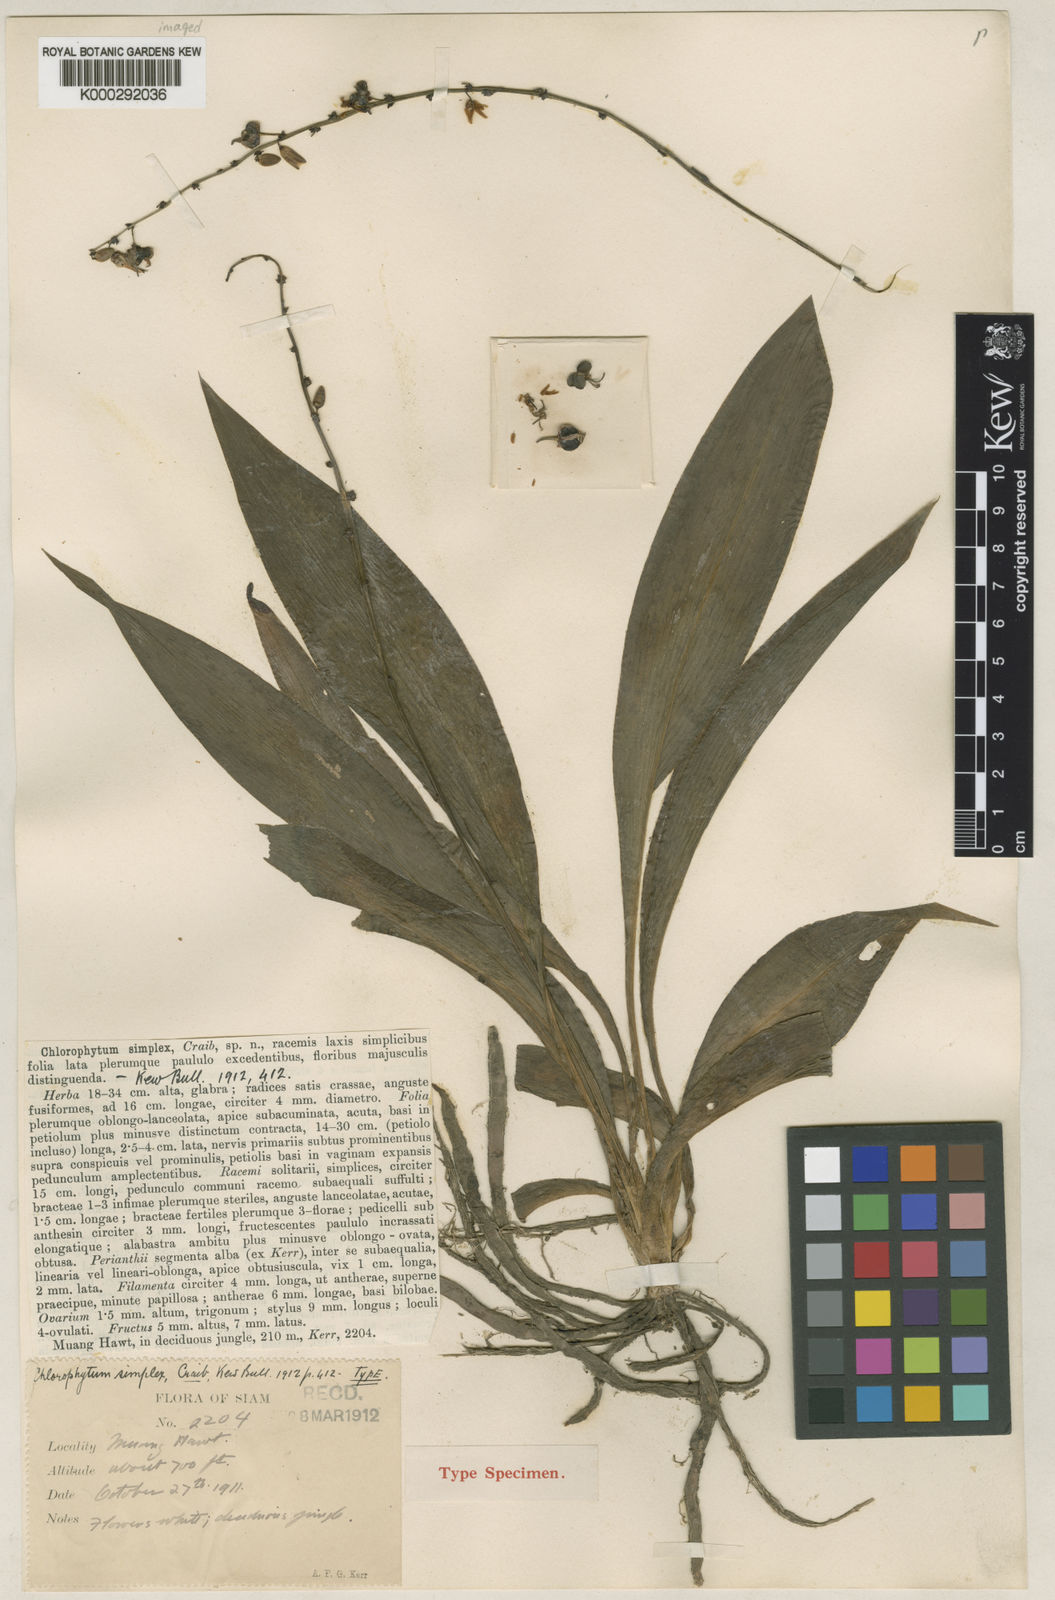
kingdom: Plantae
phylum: Tracheophyta
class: Liliopsida
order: Asparagales
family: Asparagaceae
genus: Chlorophytum
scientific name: Chlorophytum simplex
